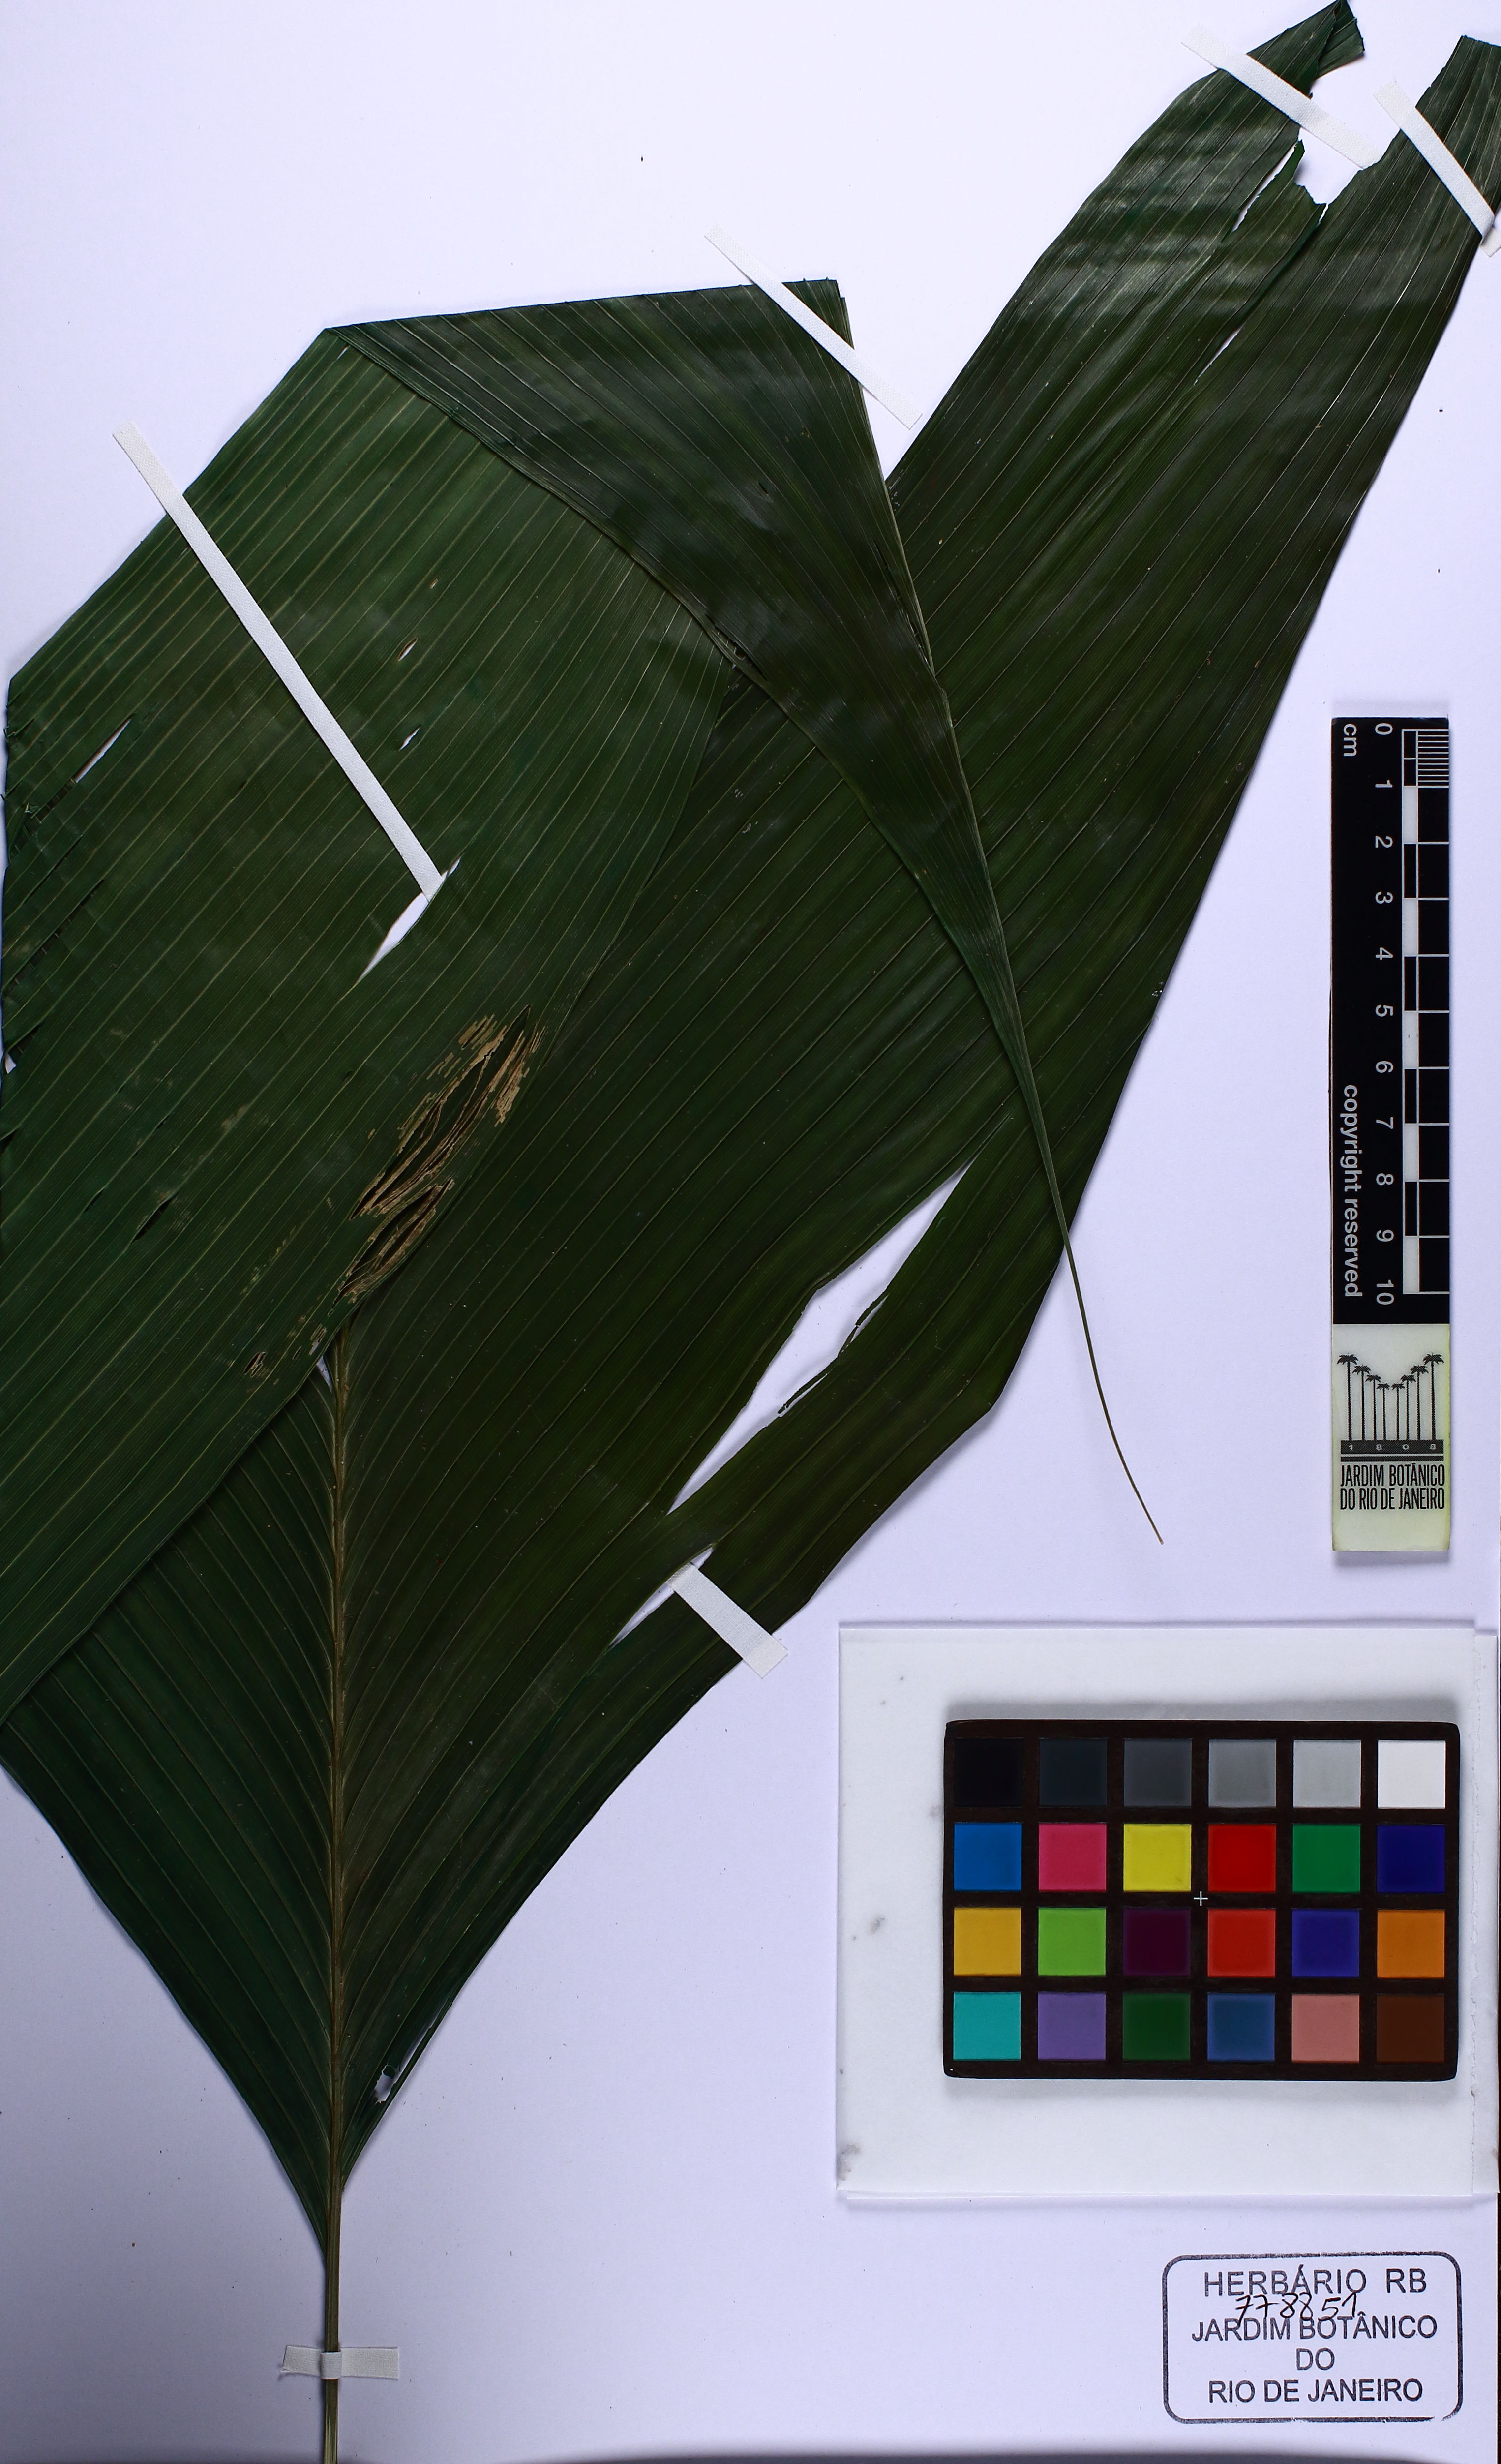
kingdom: Plantae
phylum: Tracheophyta
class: Liliopsida
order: Arecales
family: Arecaceae
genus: Geonoma
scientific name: Geonoma pohliana
